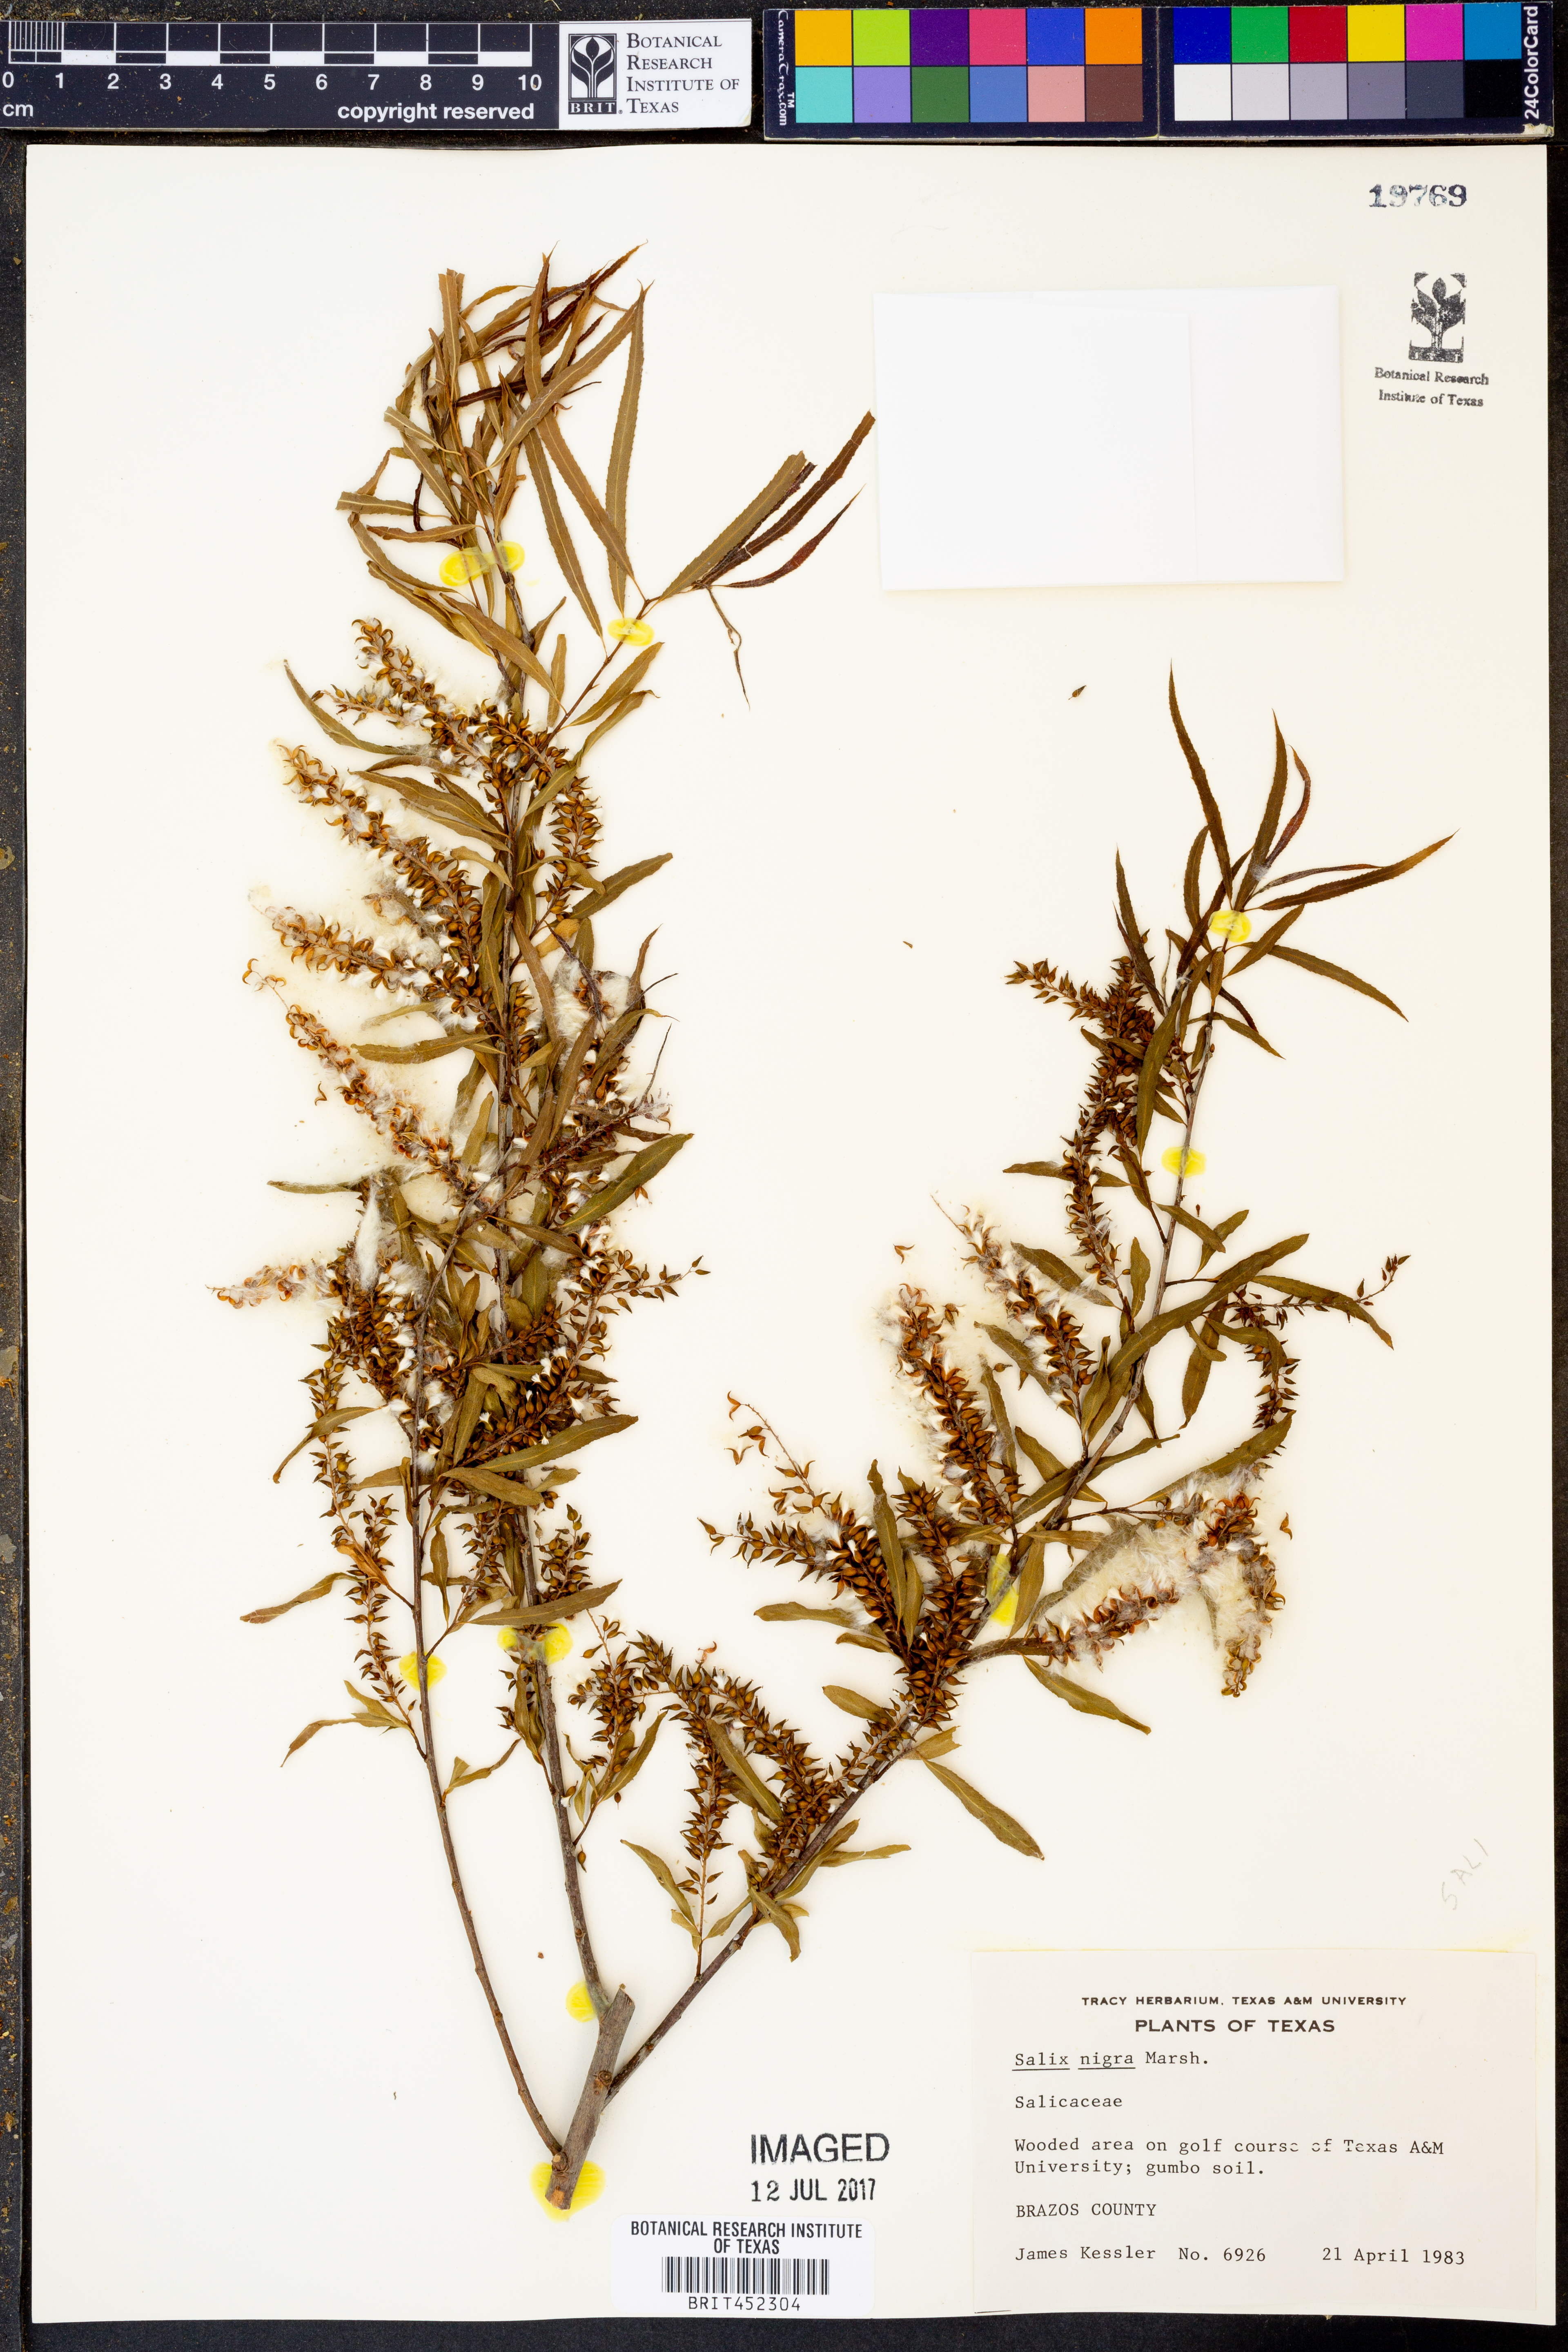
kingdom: Plantae
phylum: Tracheophyta
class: Magnoliopsida
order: Malpighiales
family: Salicaceae
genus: Salix
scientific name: Salix nigra
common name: Black willow
